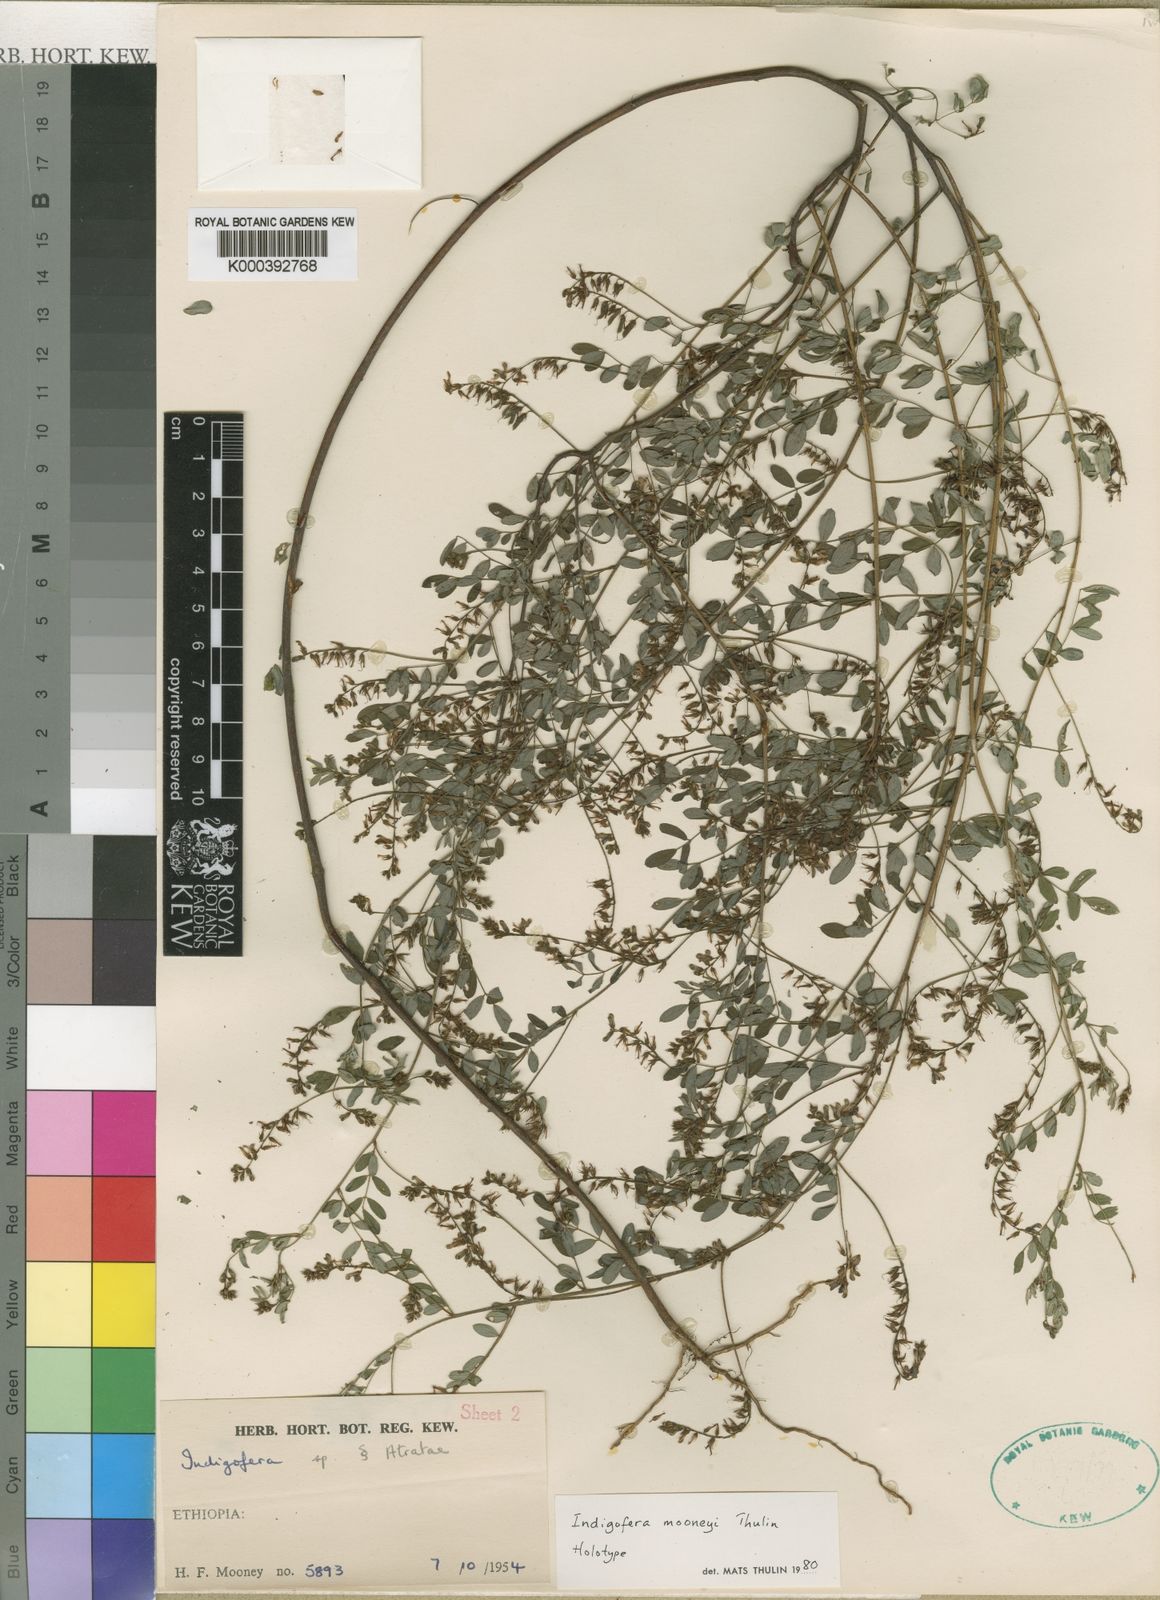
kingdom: Plantae
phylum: Tracheophyta
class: Magnoliopsida
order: Fabales
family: Fabaceae
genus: Indigofera
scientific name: Indigofera mooneyi
